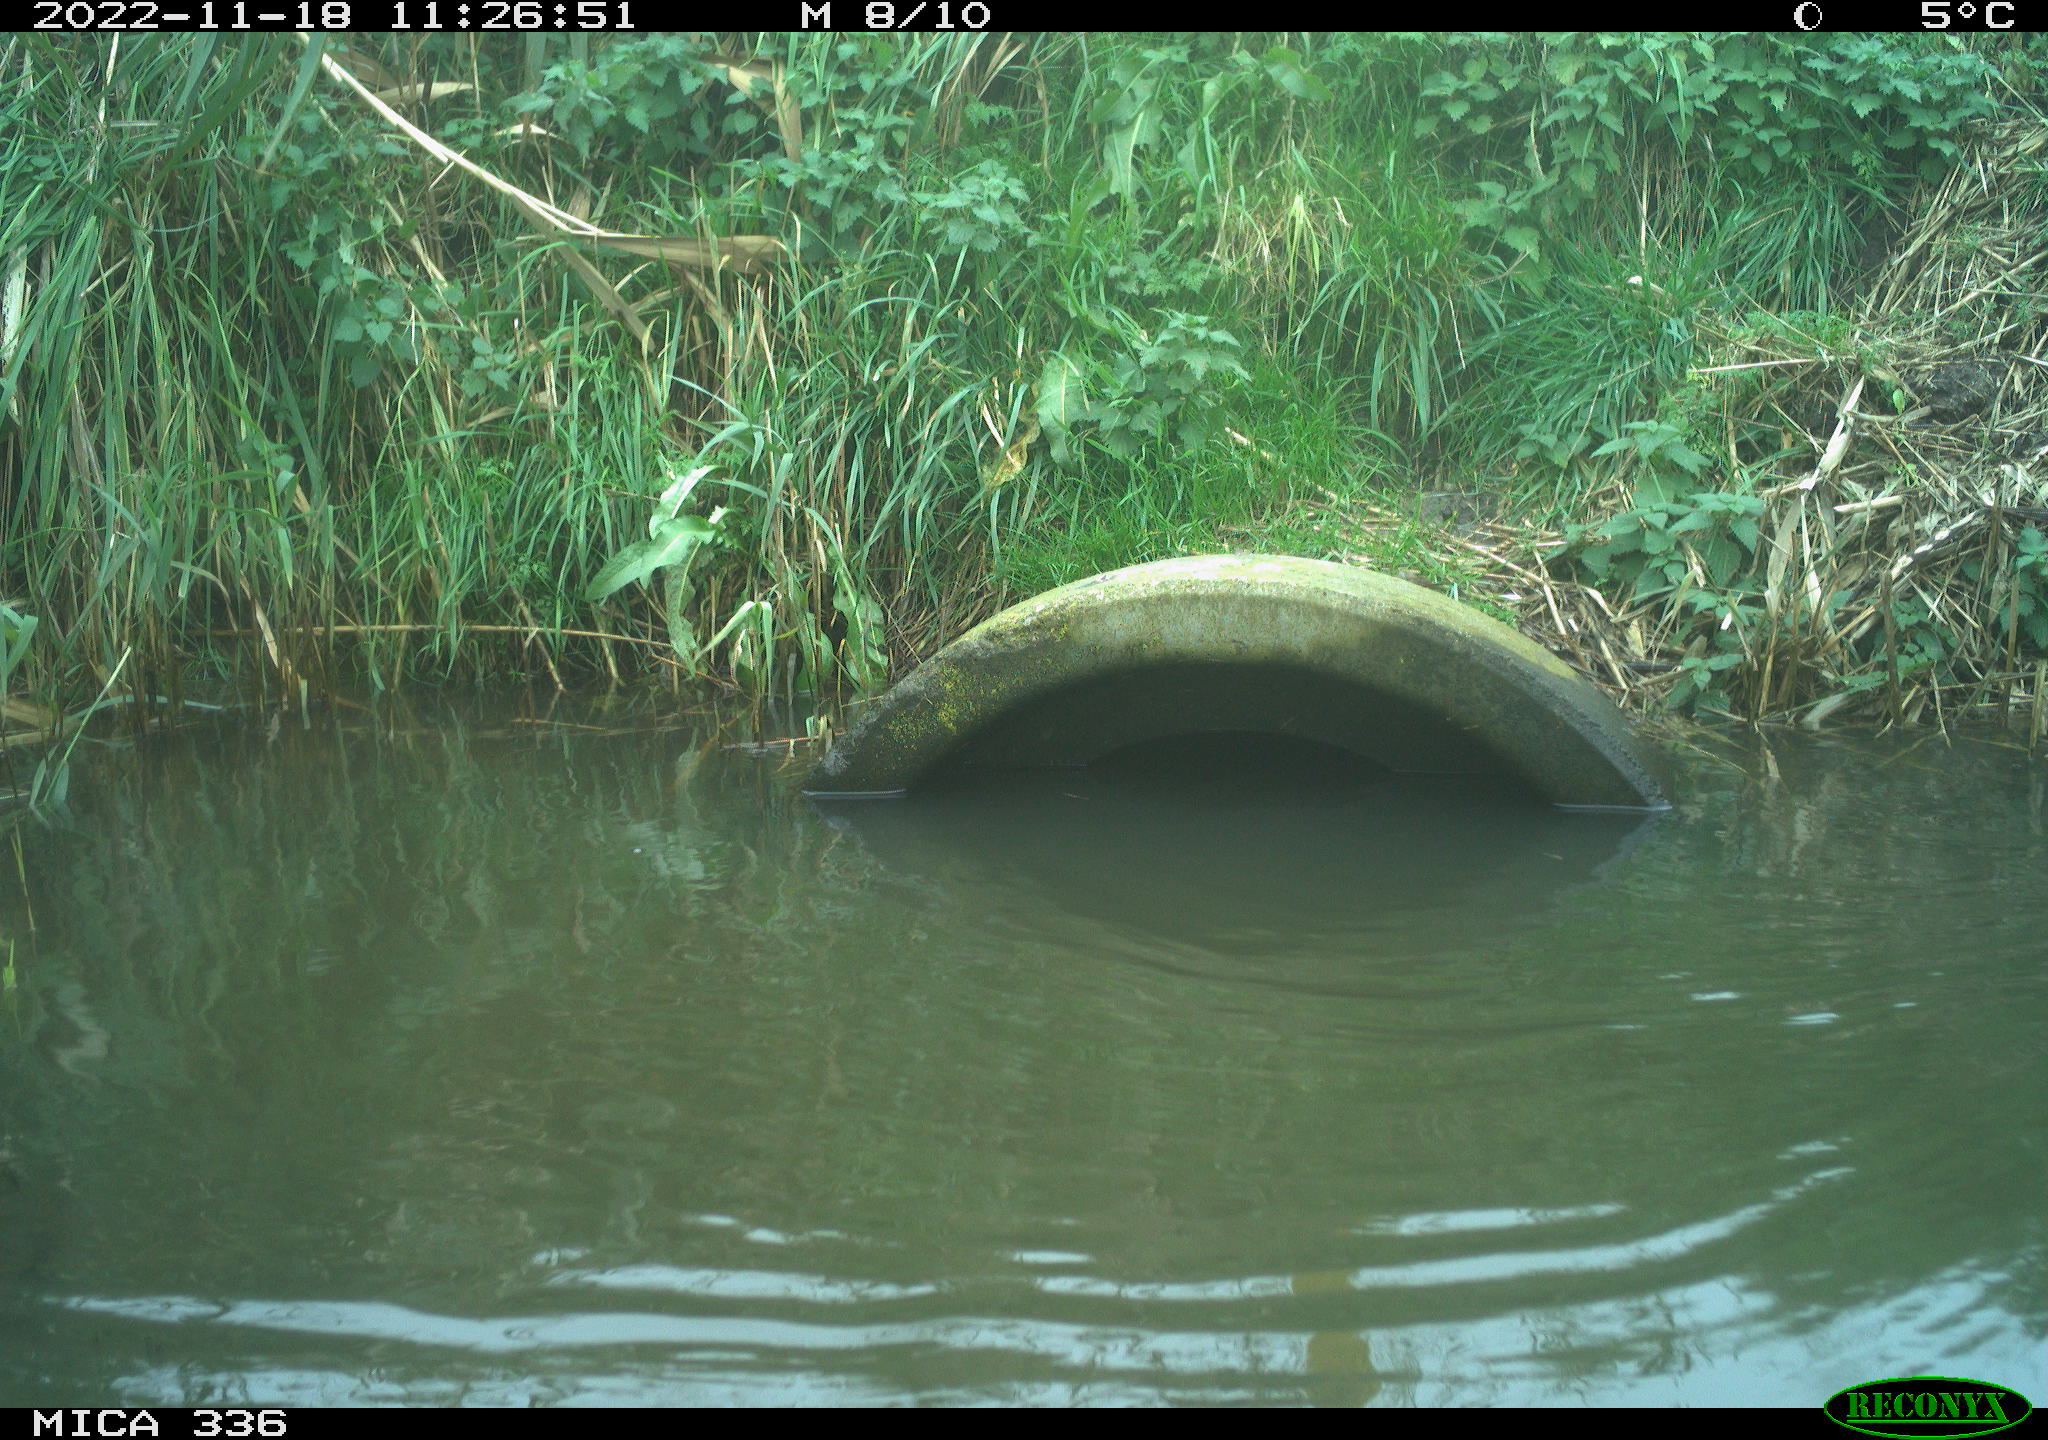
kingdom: Animalia
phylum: Chordata
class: Aves
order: Gruiformes
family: Rallidae
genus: Rallus
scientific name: Rallus aquaticus
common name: Water rail
